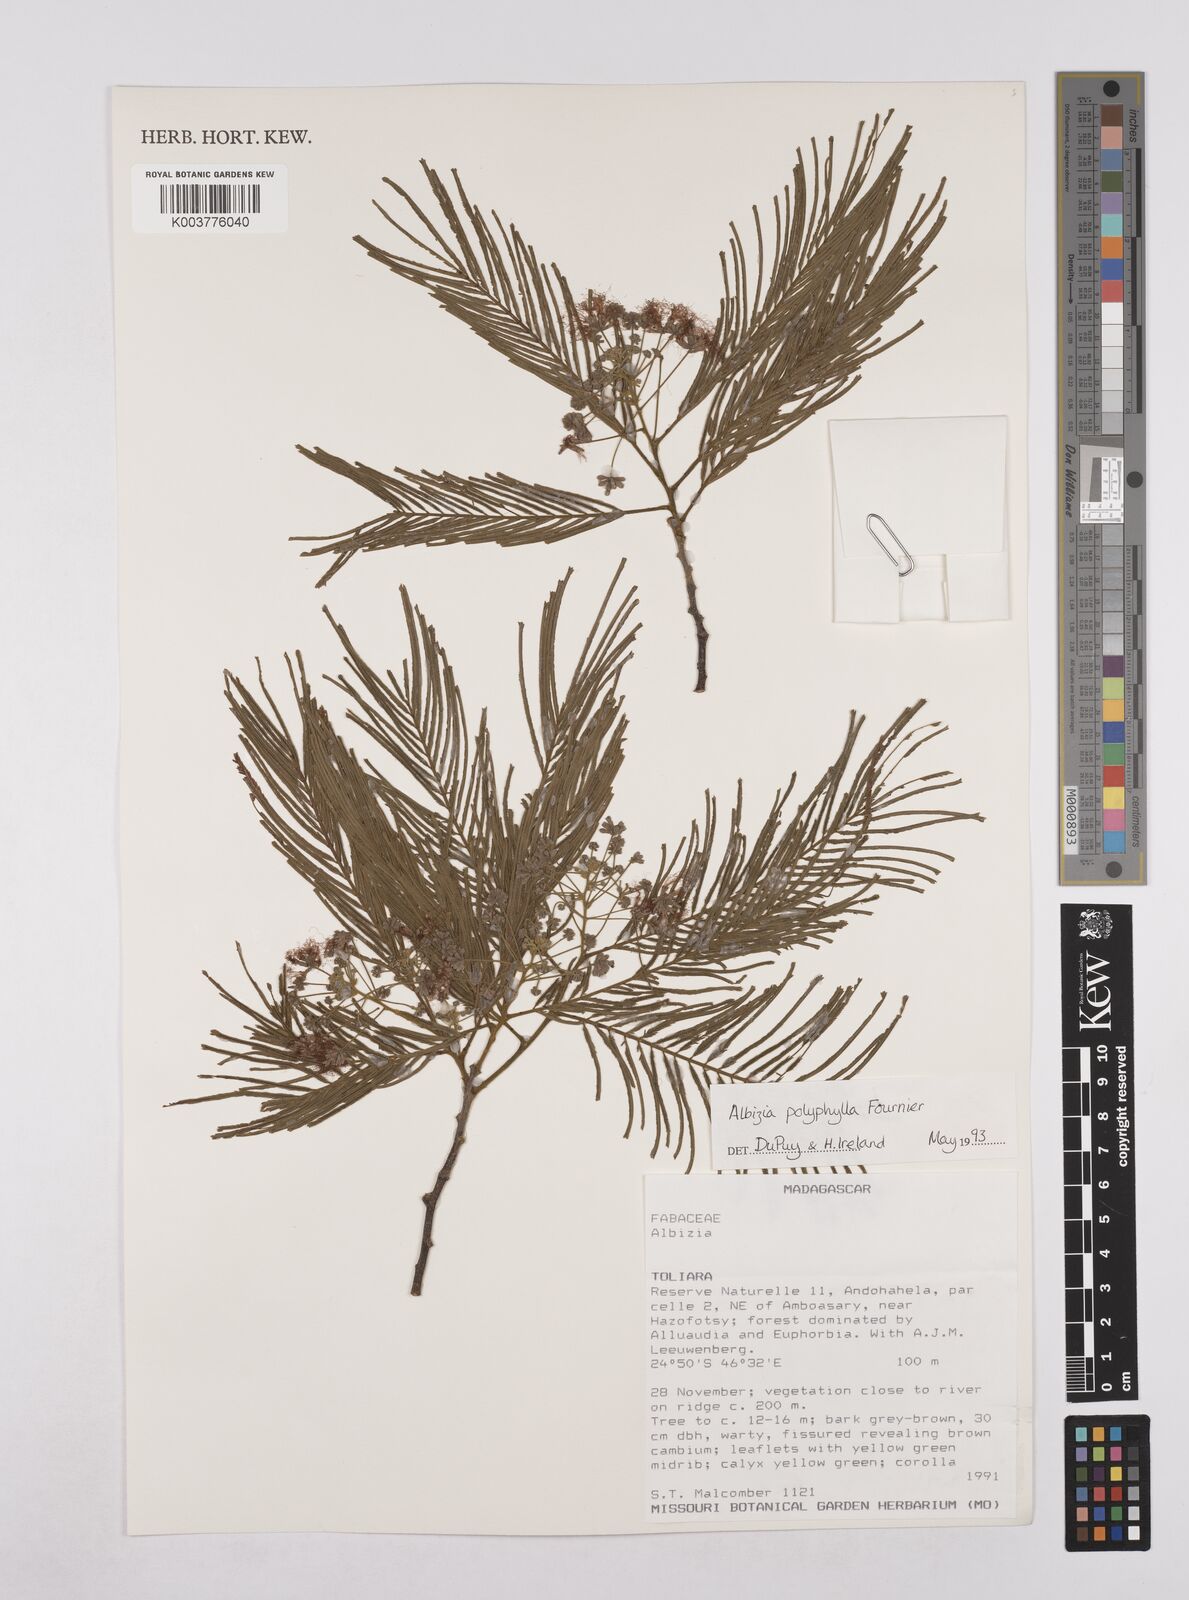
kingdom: Plantae
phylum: Tracheophyta
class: Magnoliopsida
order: Fabales
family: Fabaceae
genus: Albizia
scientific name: Albizia polyphylla
